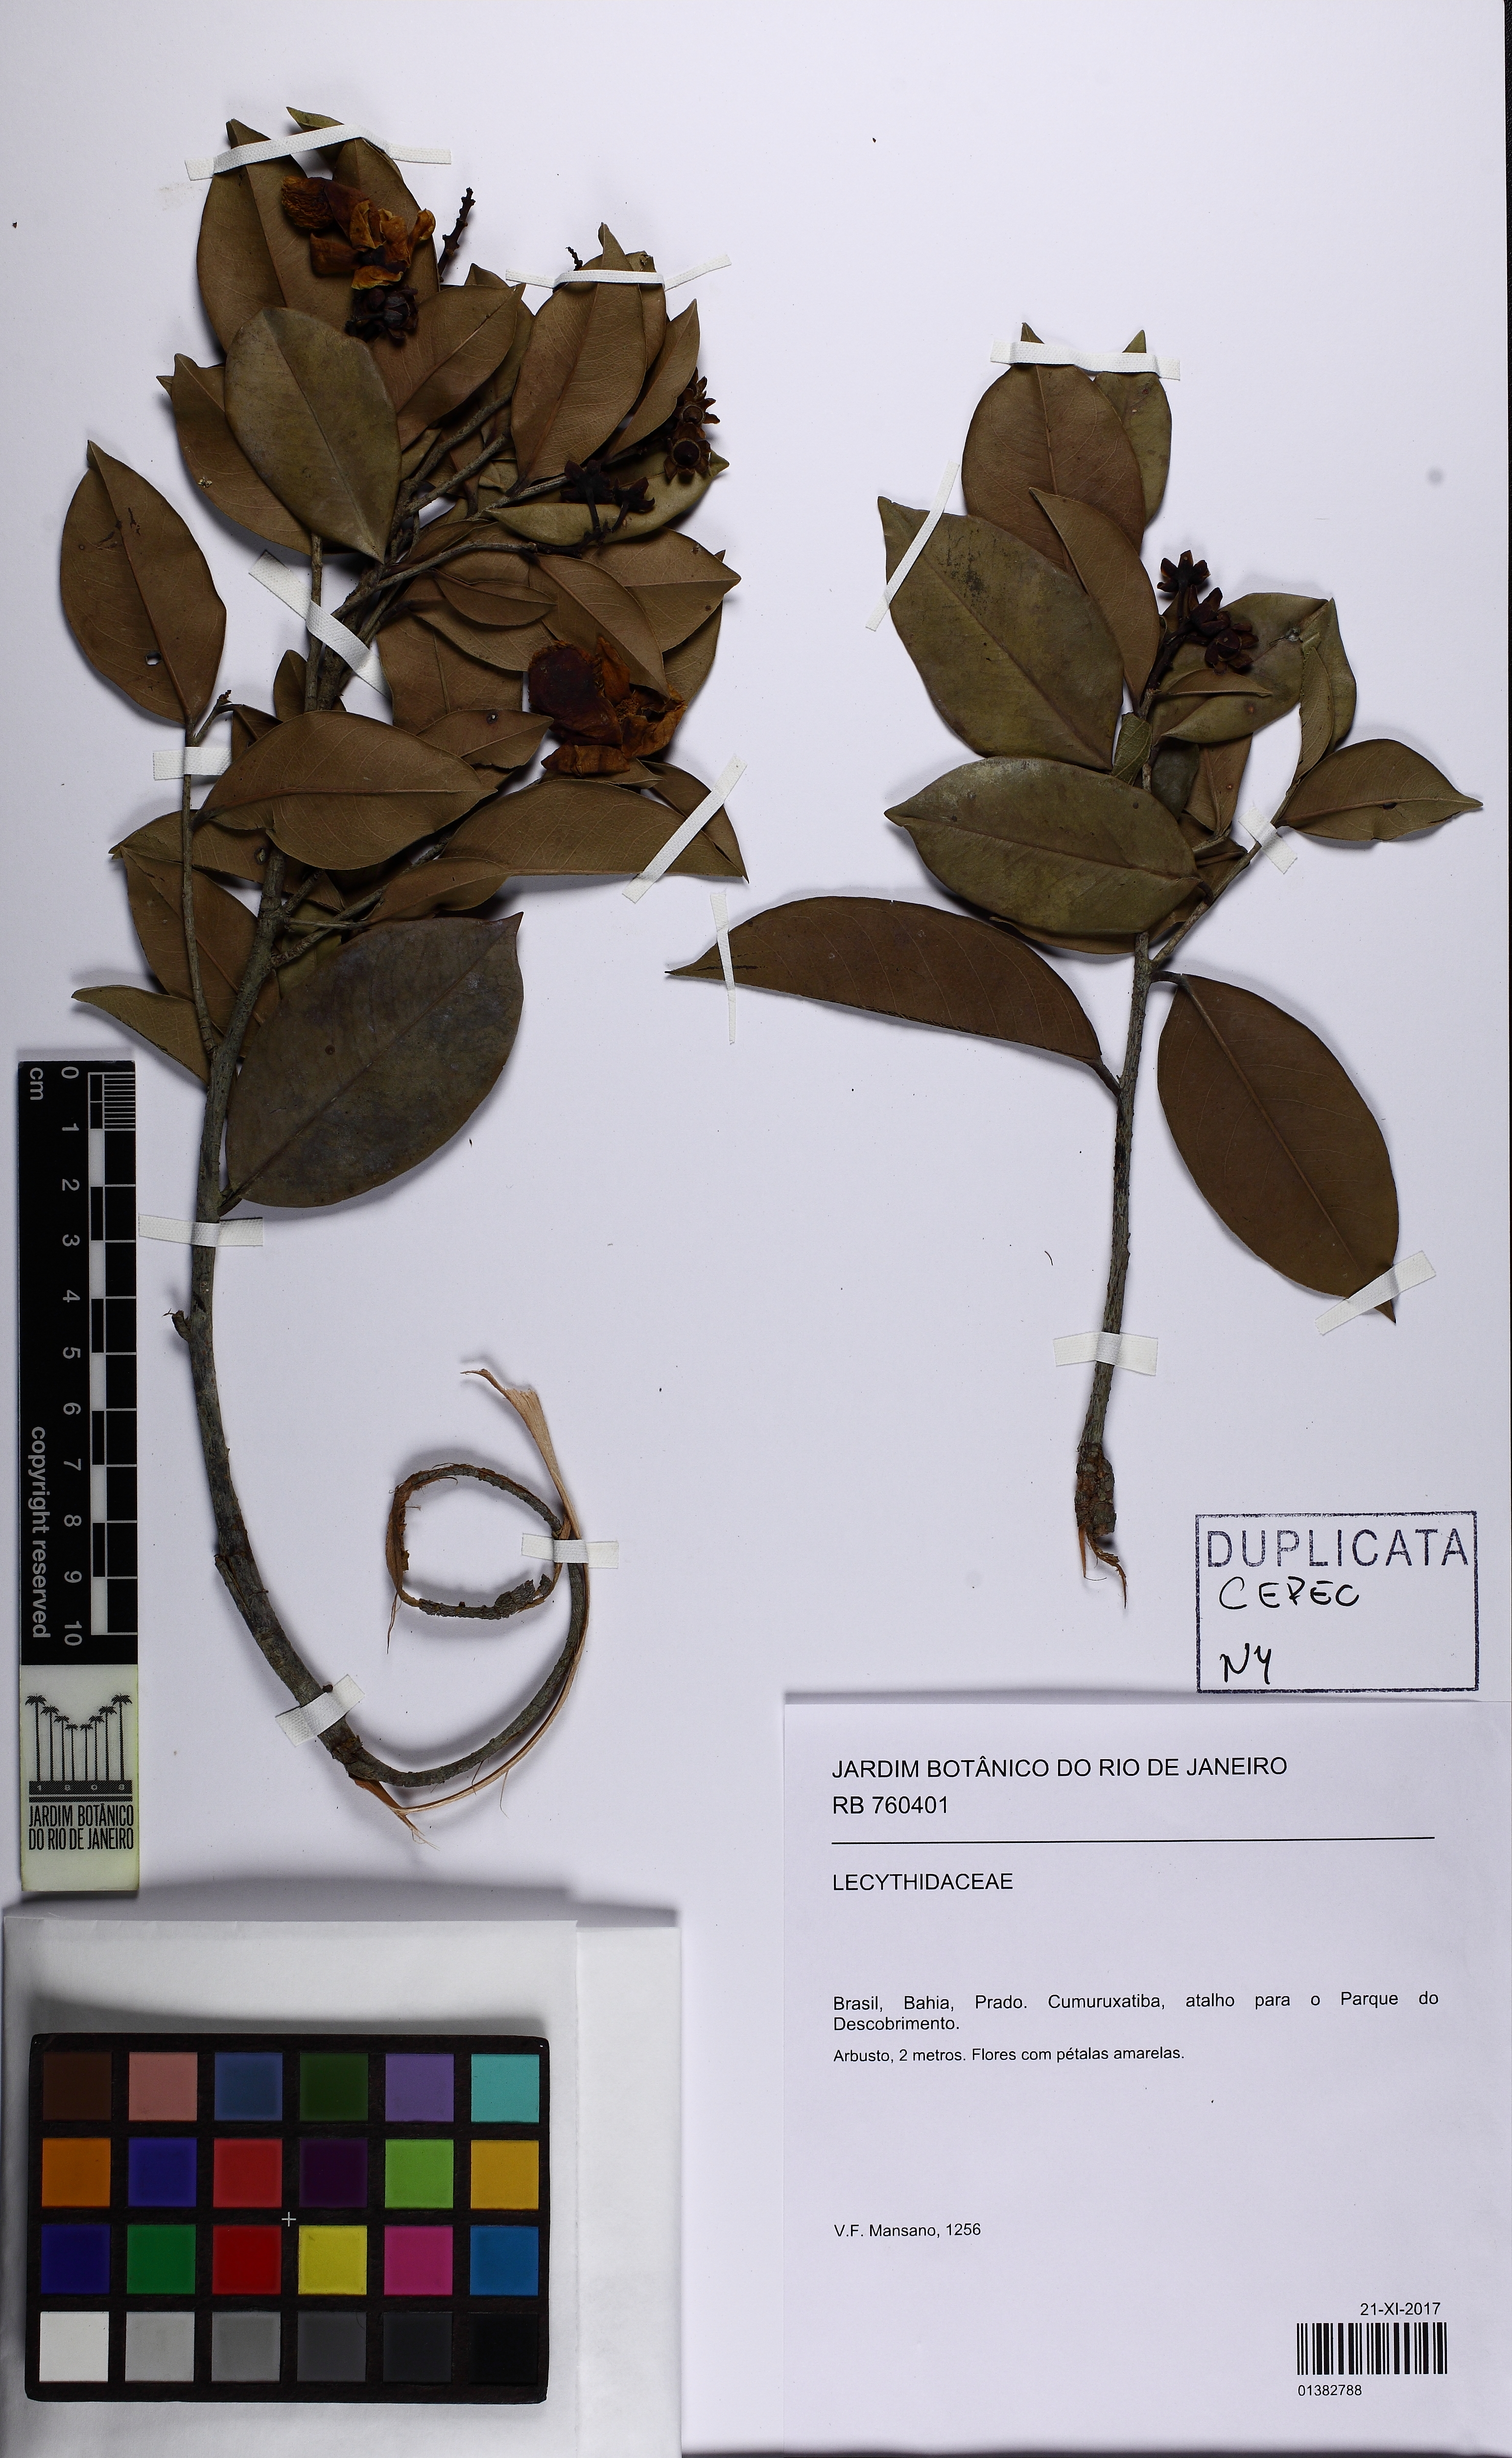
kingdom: Plantae
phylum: Tracheophyta
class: Magnoliopsida
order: Ericales
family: Lecythidaceae
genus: Eschweilera
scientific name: Eschweilera ovata
